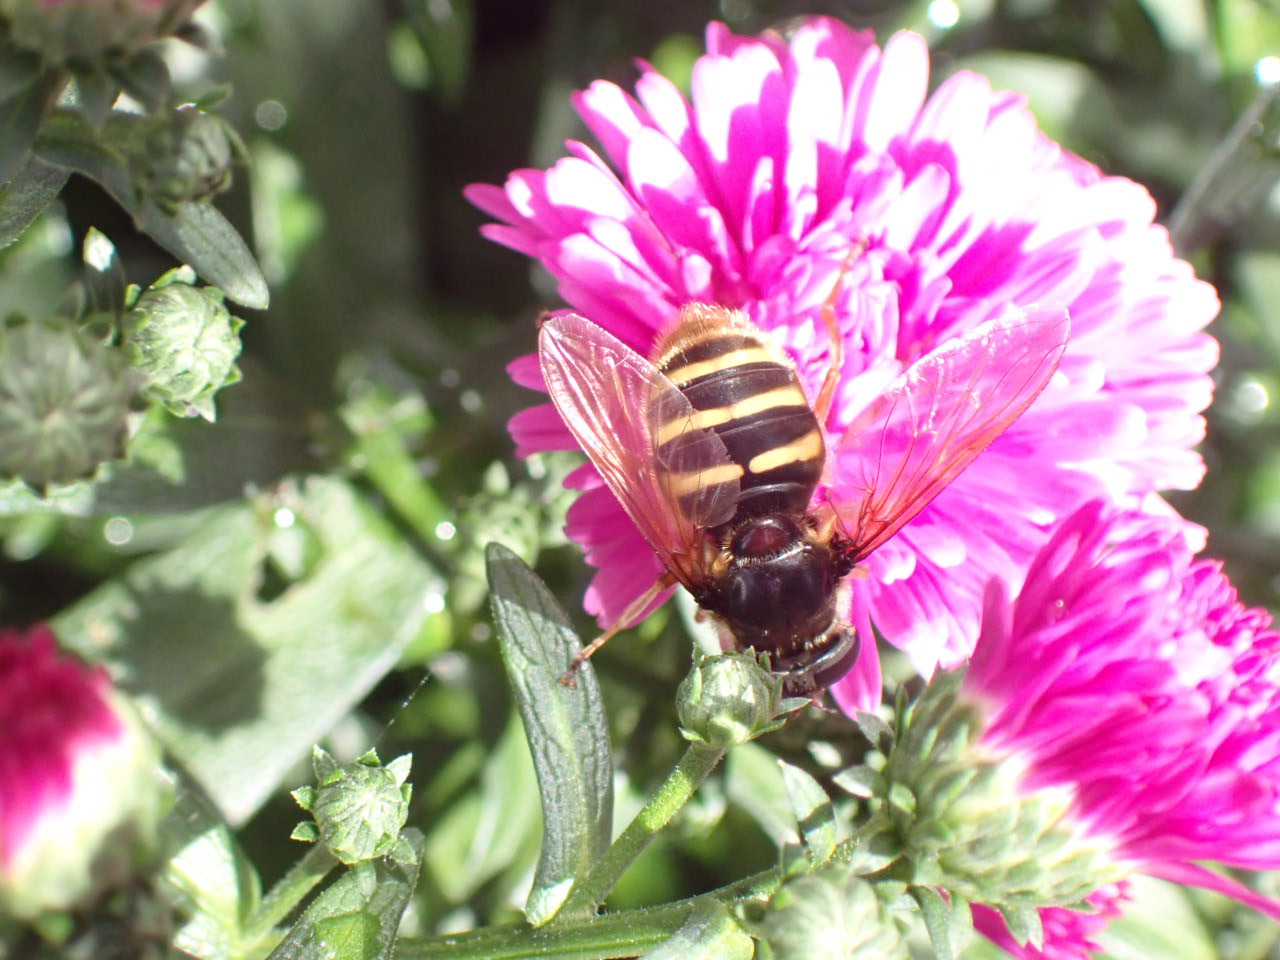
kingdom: Animalia
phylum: Arthropoda
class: Insecta
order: Diptera
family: Syrphidae
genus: Sericomyia
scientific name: Sericomyia silentis
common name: Tørve-silkesvirreflue
